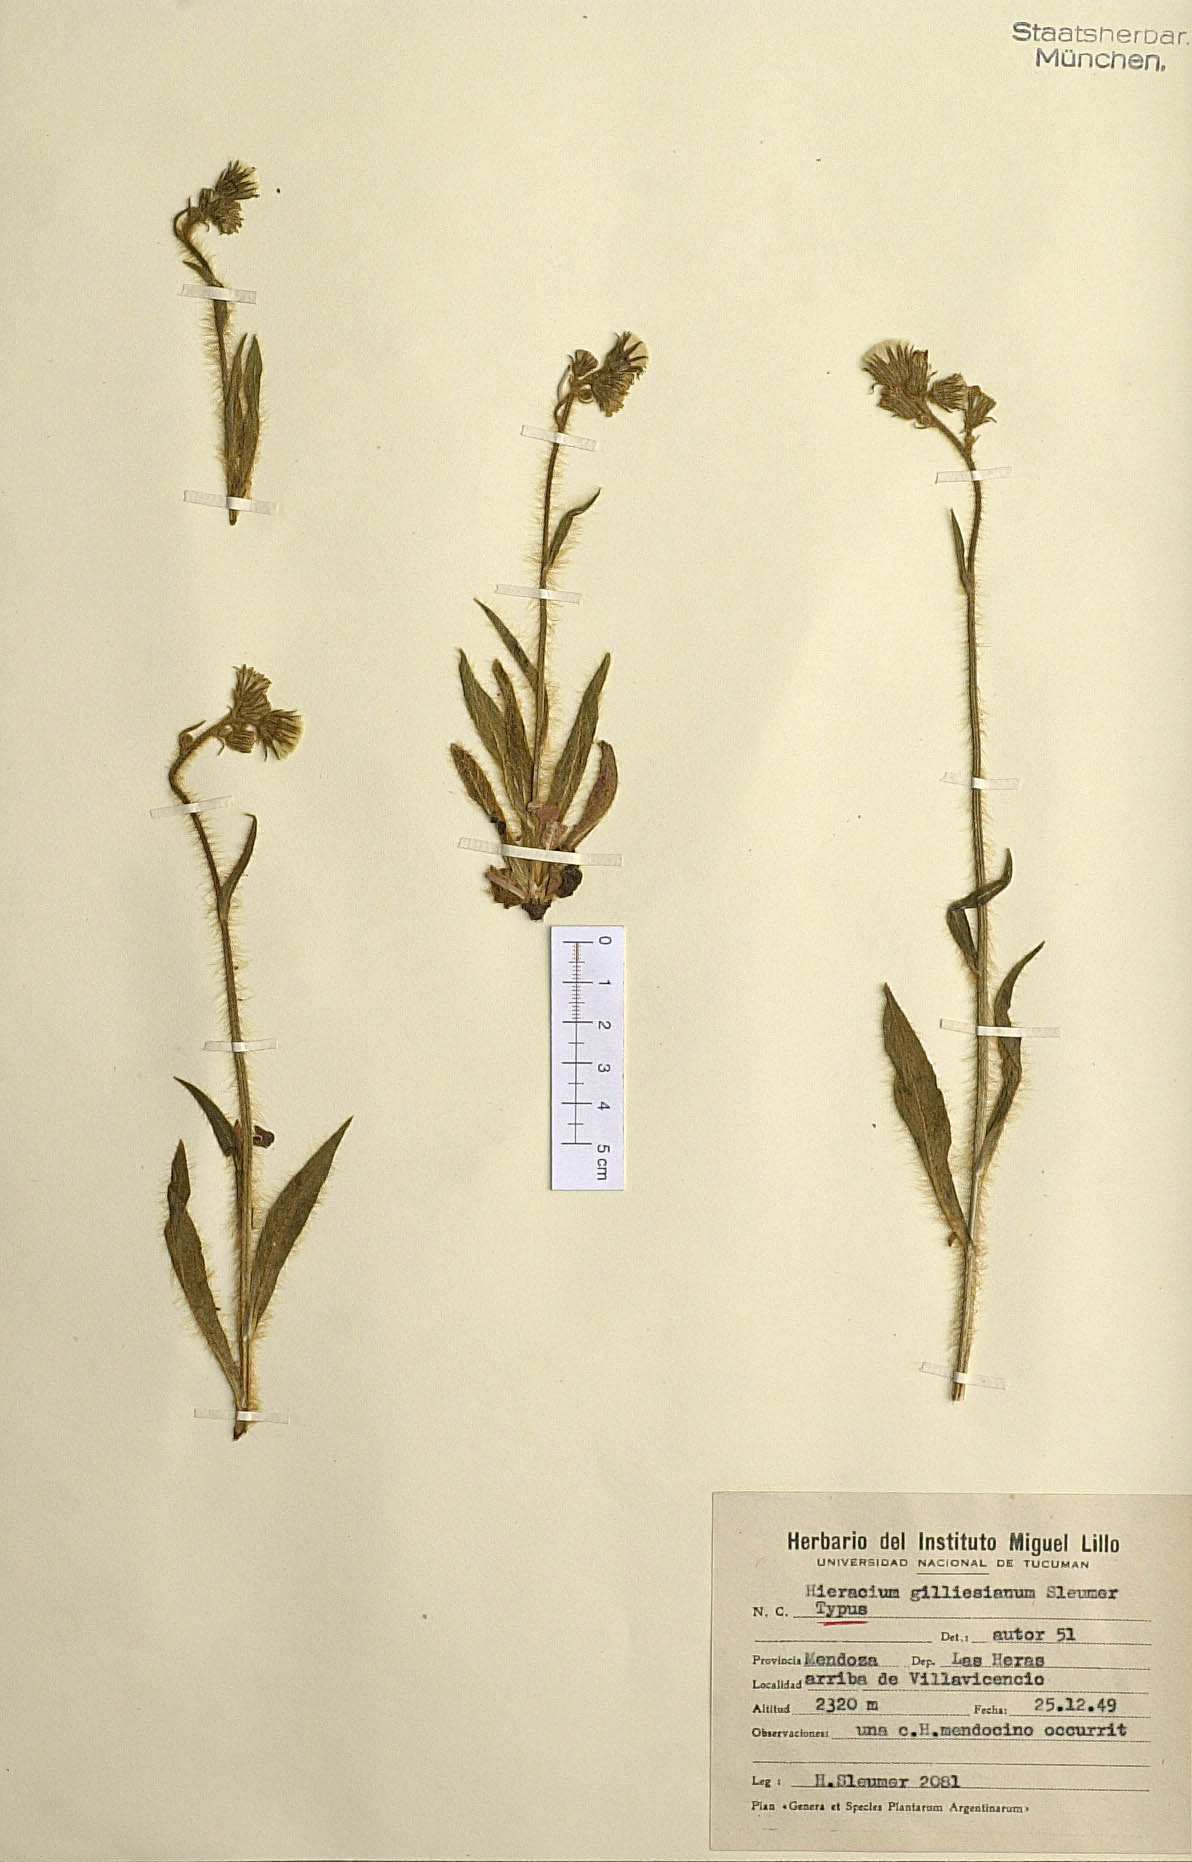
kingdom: Plantae
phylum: Tracheophyta
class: Magnoliopsida
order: Asterales
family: Asteraceae
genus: Hieracium
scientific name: Hieracium gilliesianum
